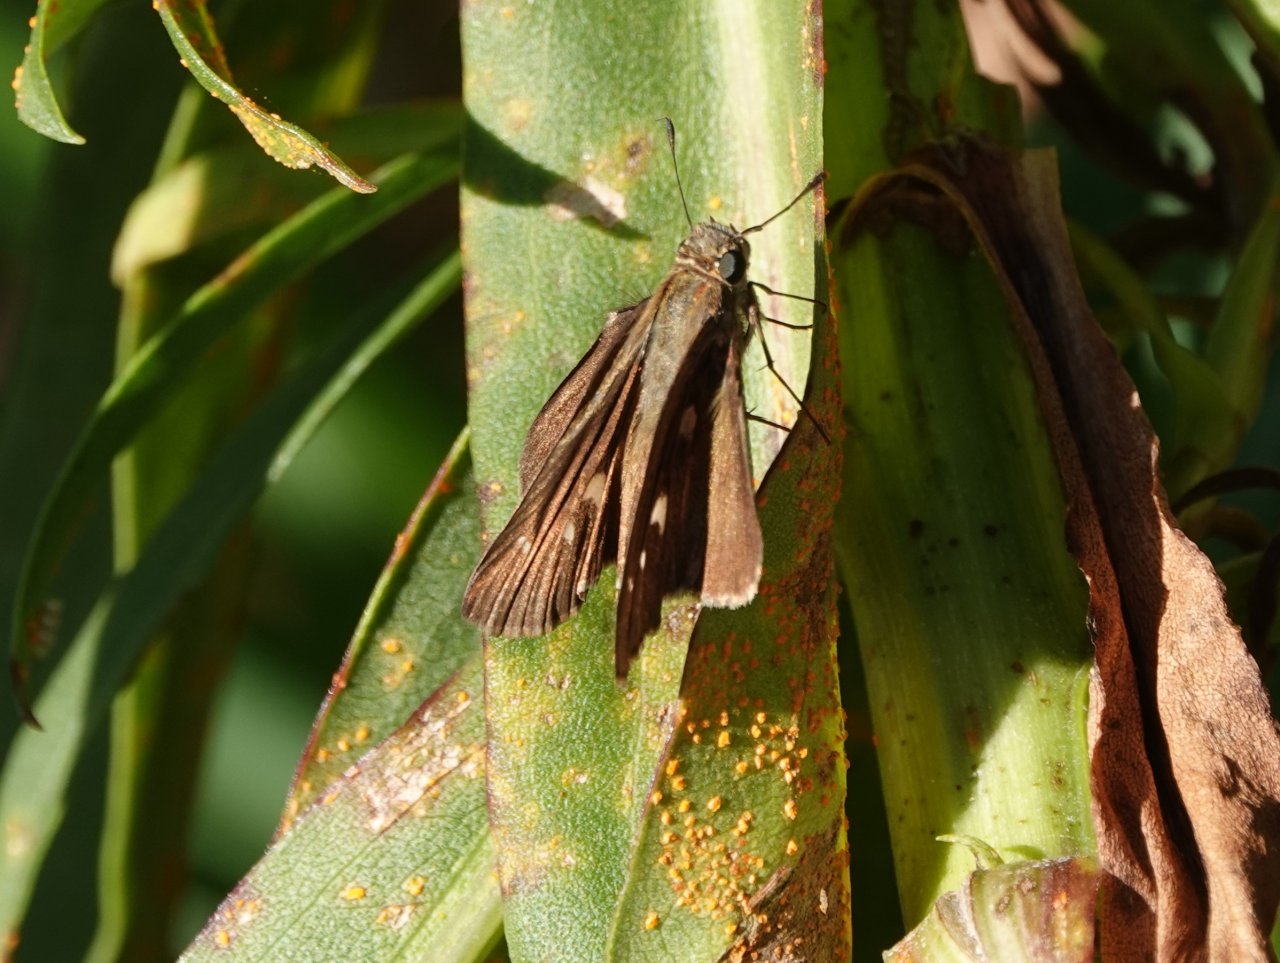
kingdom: Animalia
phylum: Arthropoda
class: Insecta
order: Lepidoptera
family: Hesperiidae
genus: Panoquina
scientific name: Panoquina ocola
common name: Ocola Skipper
